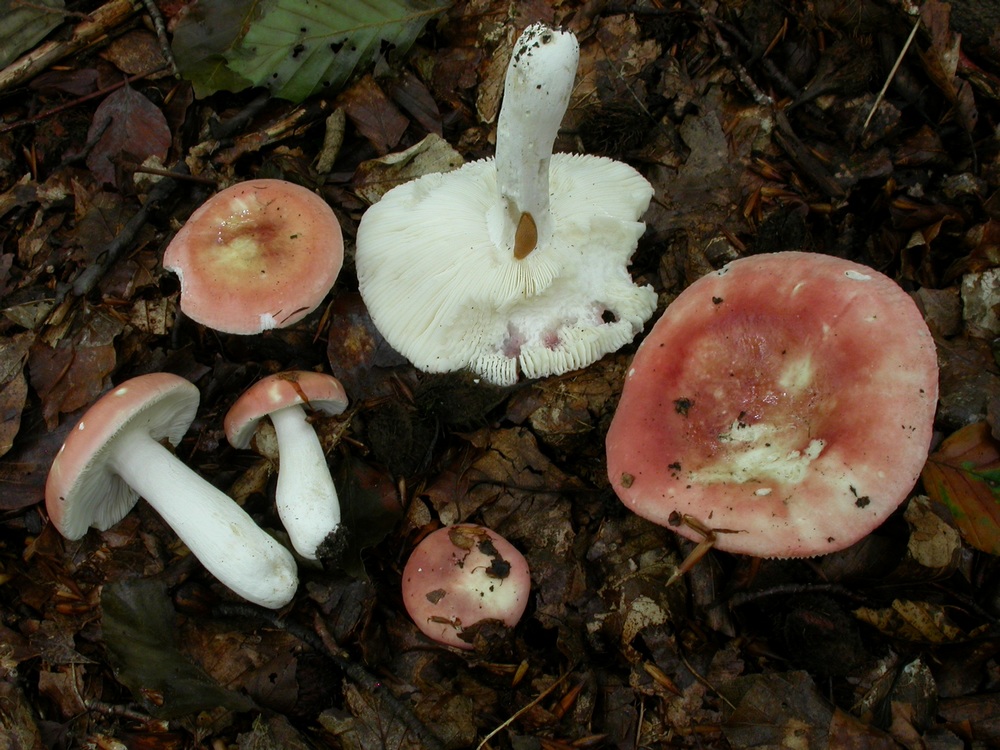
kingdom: Fungi
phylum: Basidiomycota
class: Agaricomycetes
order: Russulales
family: Russulaceae
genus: Russula
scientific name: Russula aurora
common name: rosa skørhat
